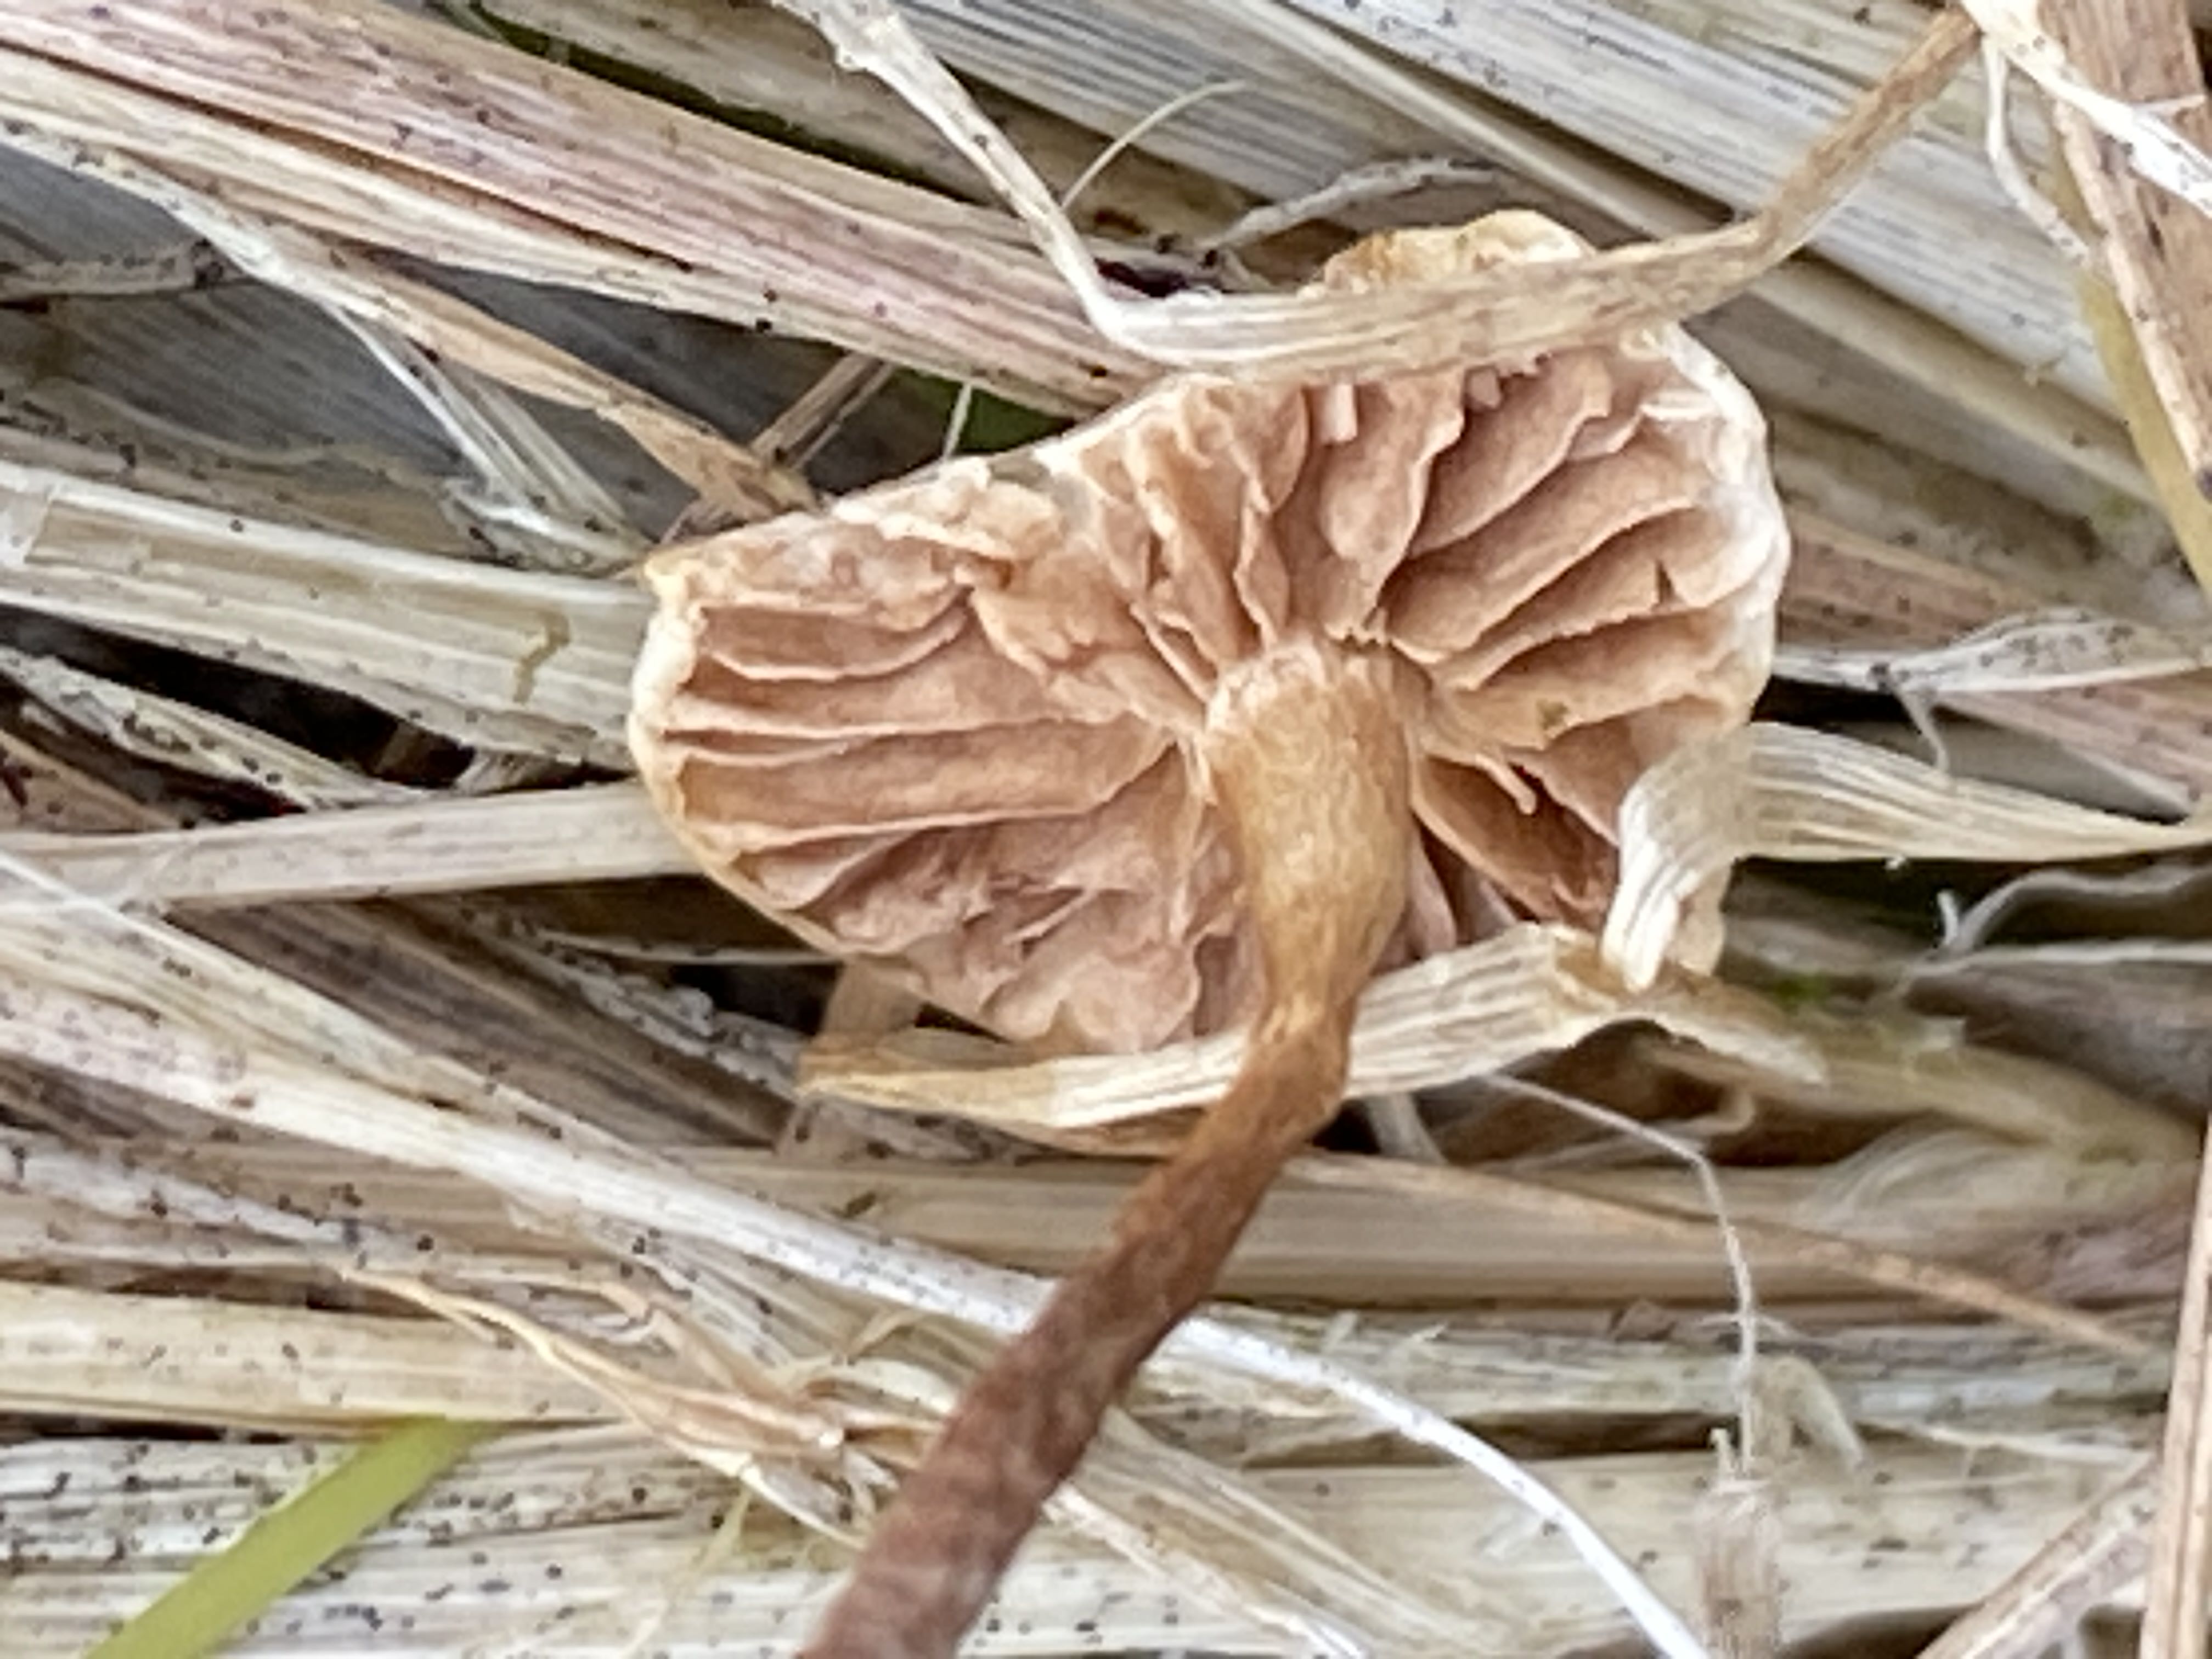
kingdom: Fungi
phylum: Basidiomycota
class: Agaricomycetes
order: Agaricales
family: Strophariaceae
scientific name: Strophariaceae
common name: bredbladfamilien
